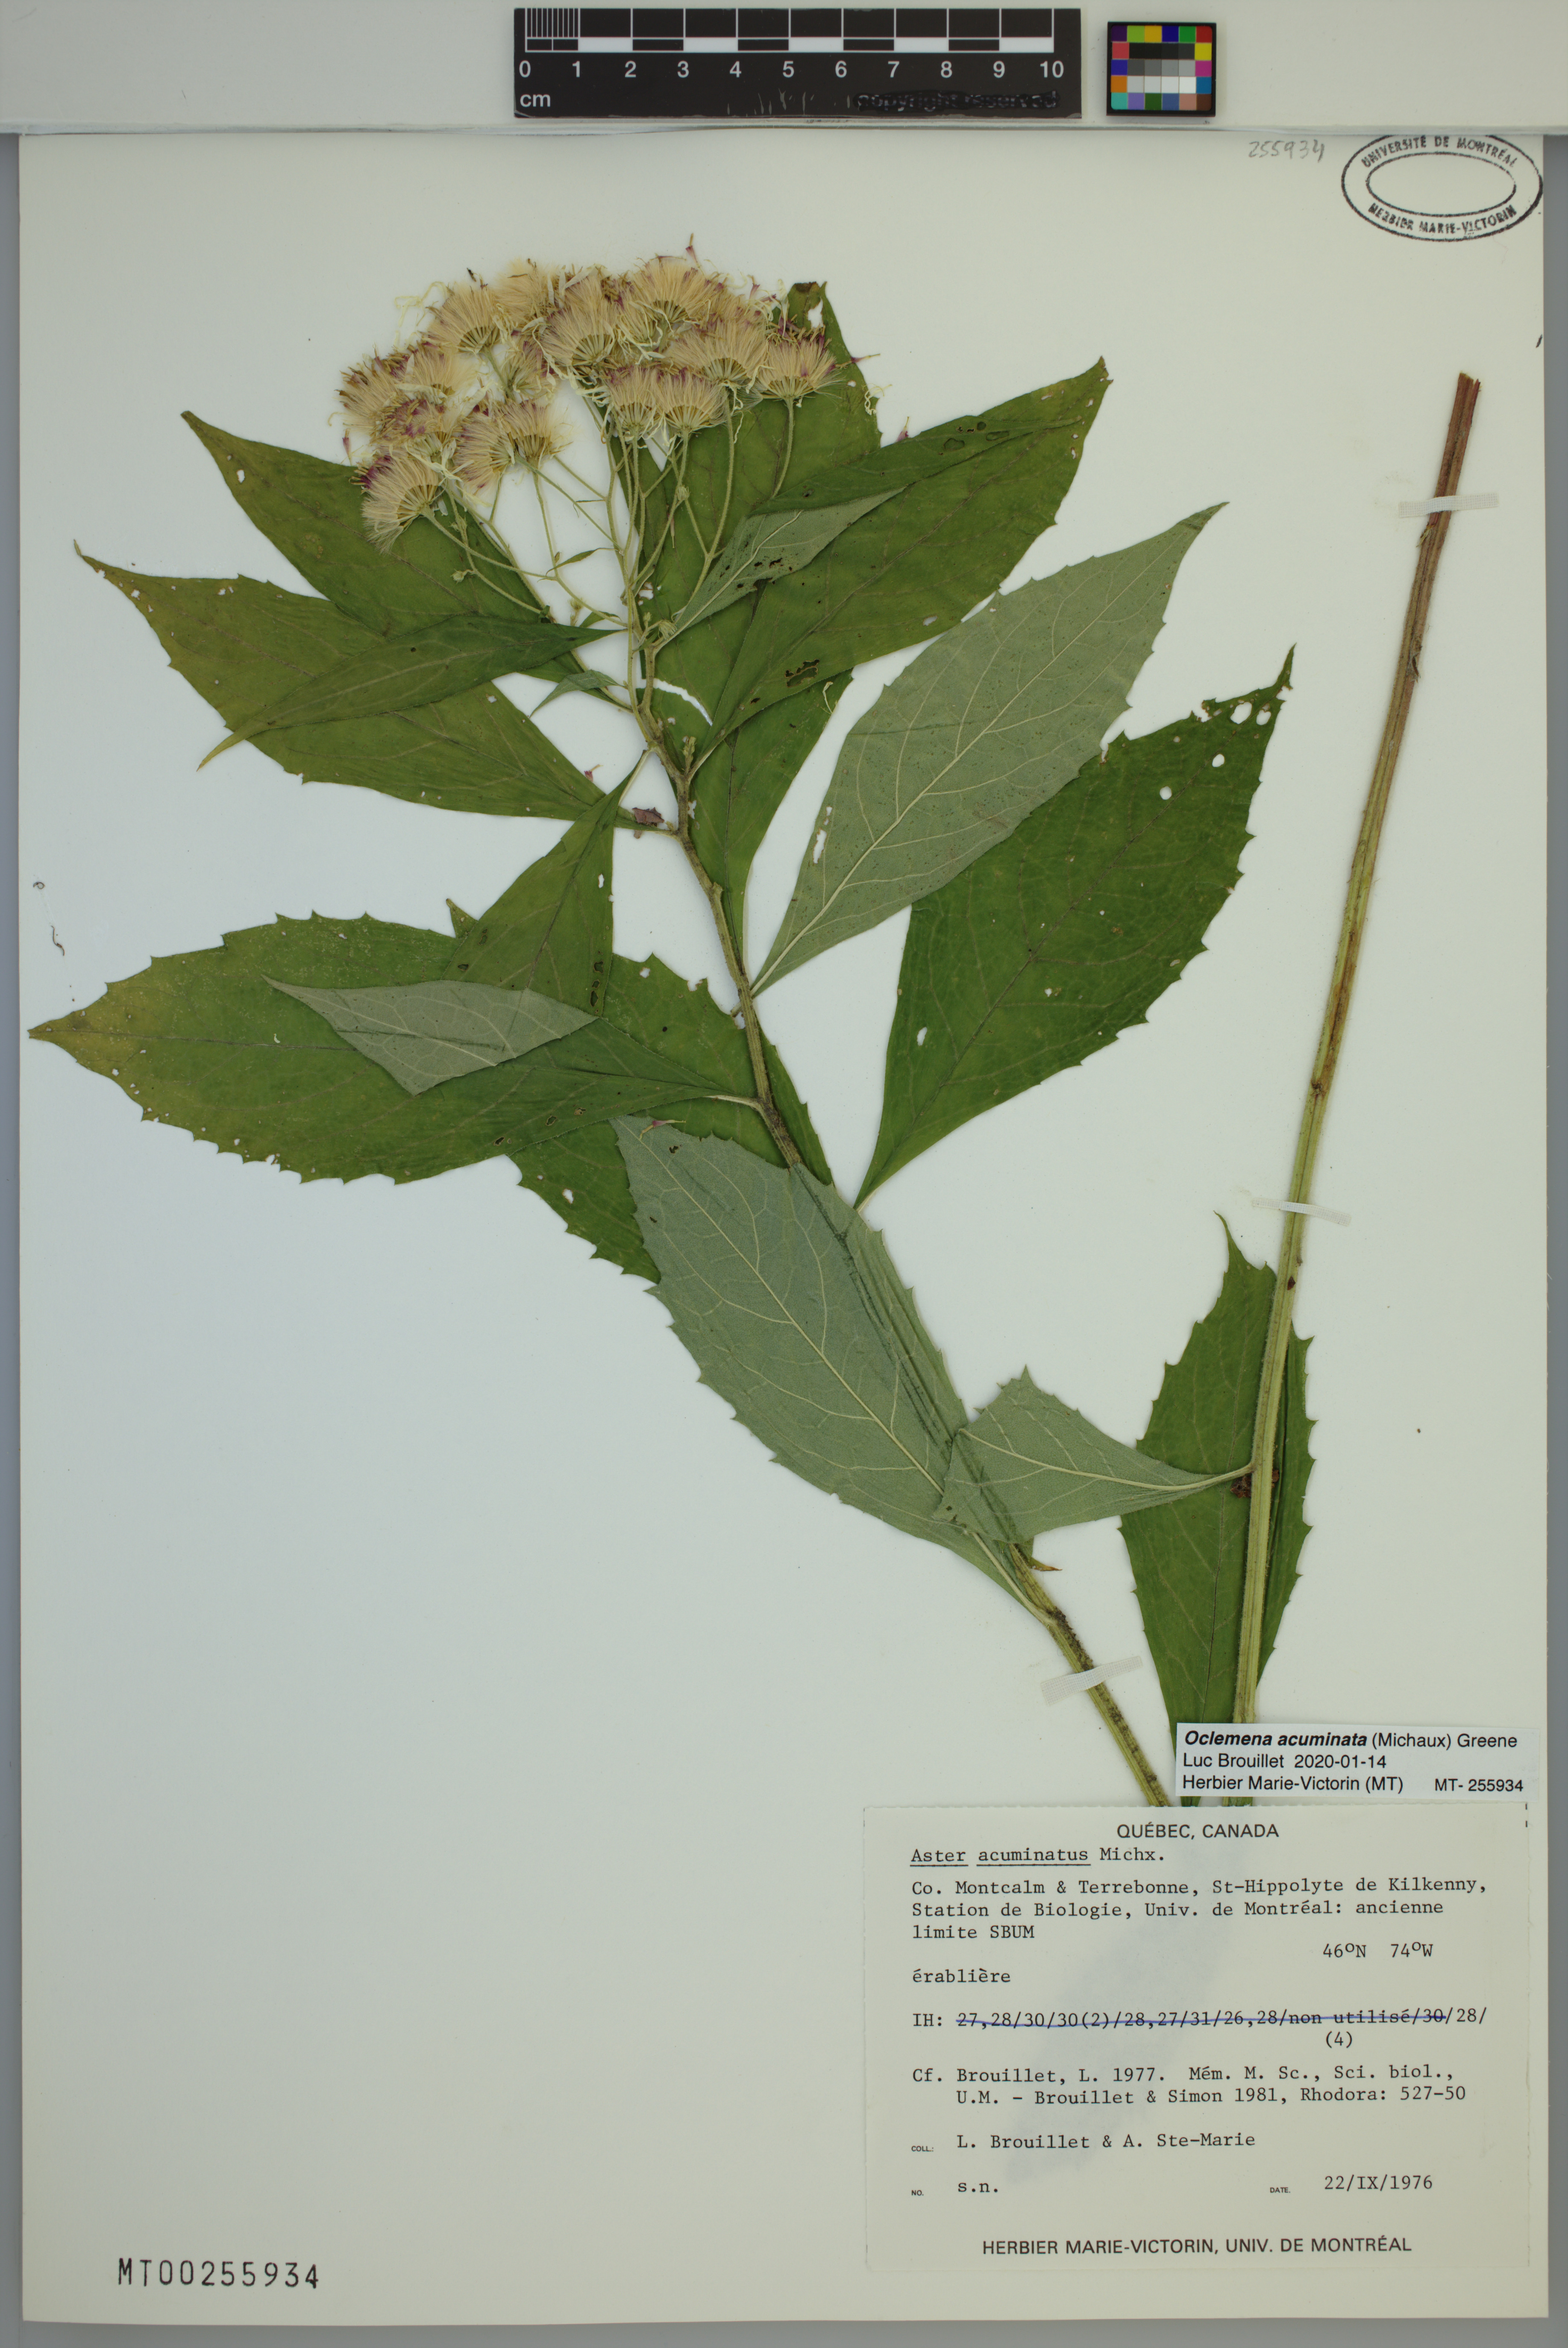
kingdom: Plantae
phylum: Tracheophyta
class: Magnoliopsida
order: Asterales
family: Asteraceae
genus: Oclemena
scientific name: Oclemena acuminata
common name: Mountain aster
